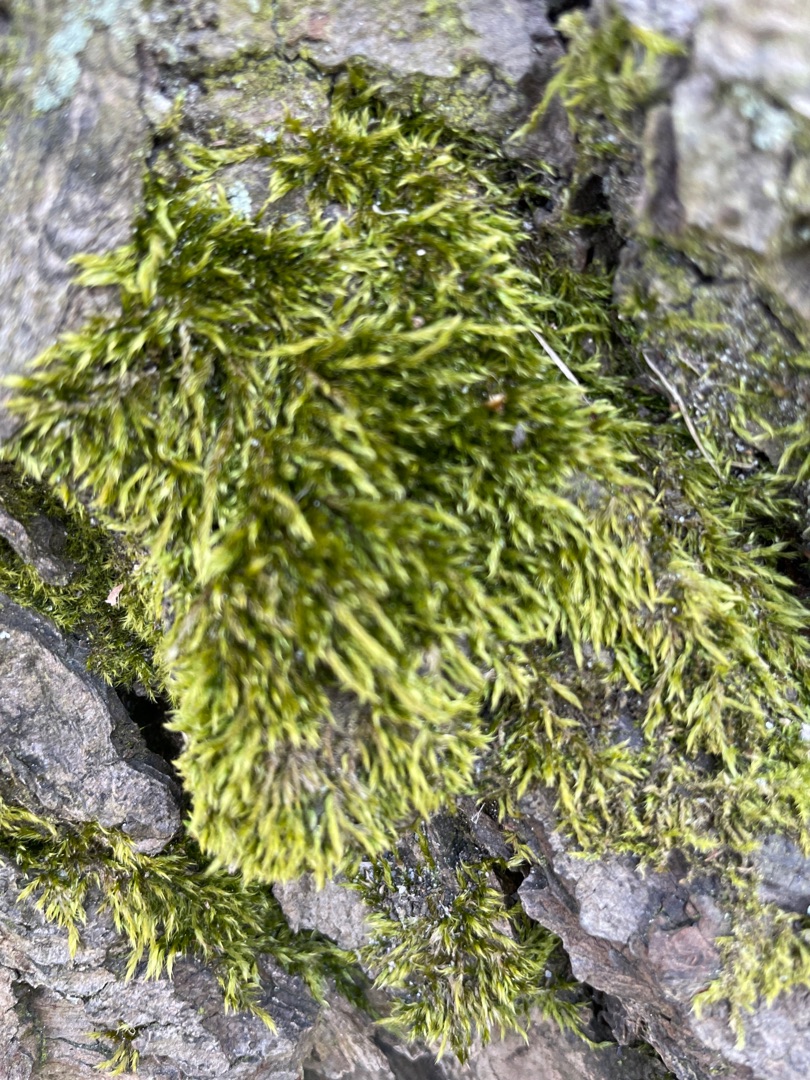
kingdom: Plantae
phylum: Bryophyta
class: Bryopsida
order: Hypnales
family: Hypnaceae
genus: Hypnum
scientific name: Hypnum
